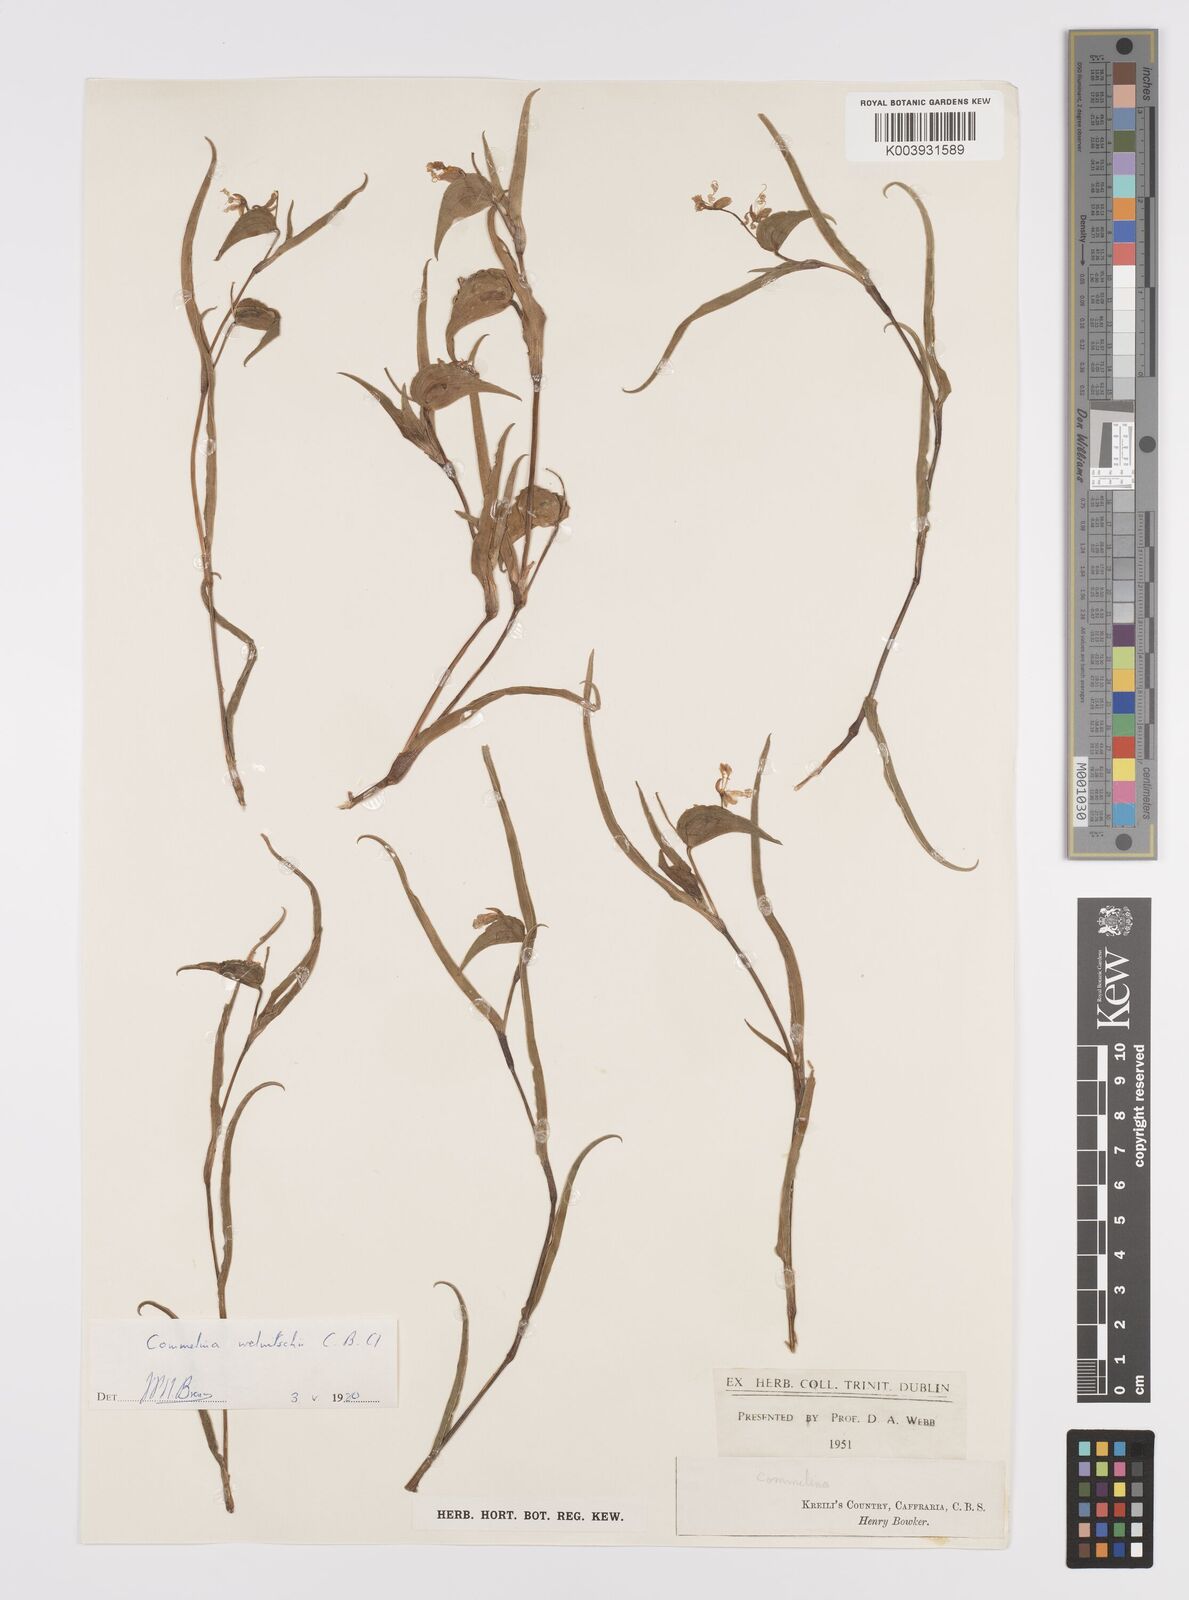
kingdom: Plantae
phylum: Tracheophyta
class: Liliopsida
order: Commelinales
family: Commelinaceae
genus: Commelina
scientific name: Commelina africana
